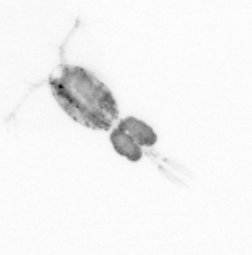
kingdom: Animalia
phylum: Arthropoda
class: Copepoda
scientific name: Copepoda
